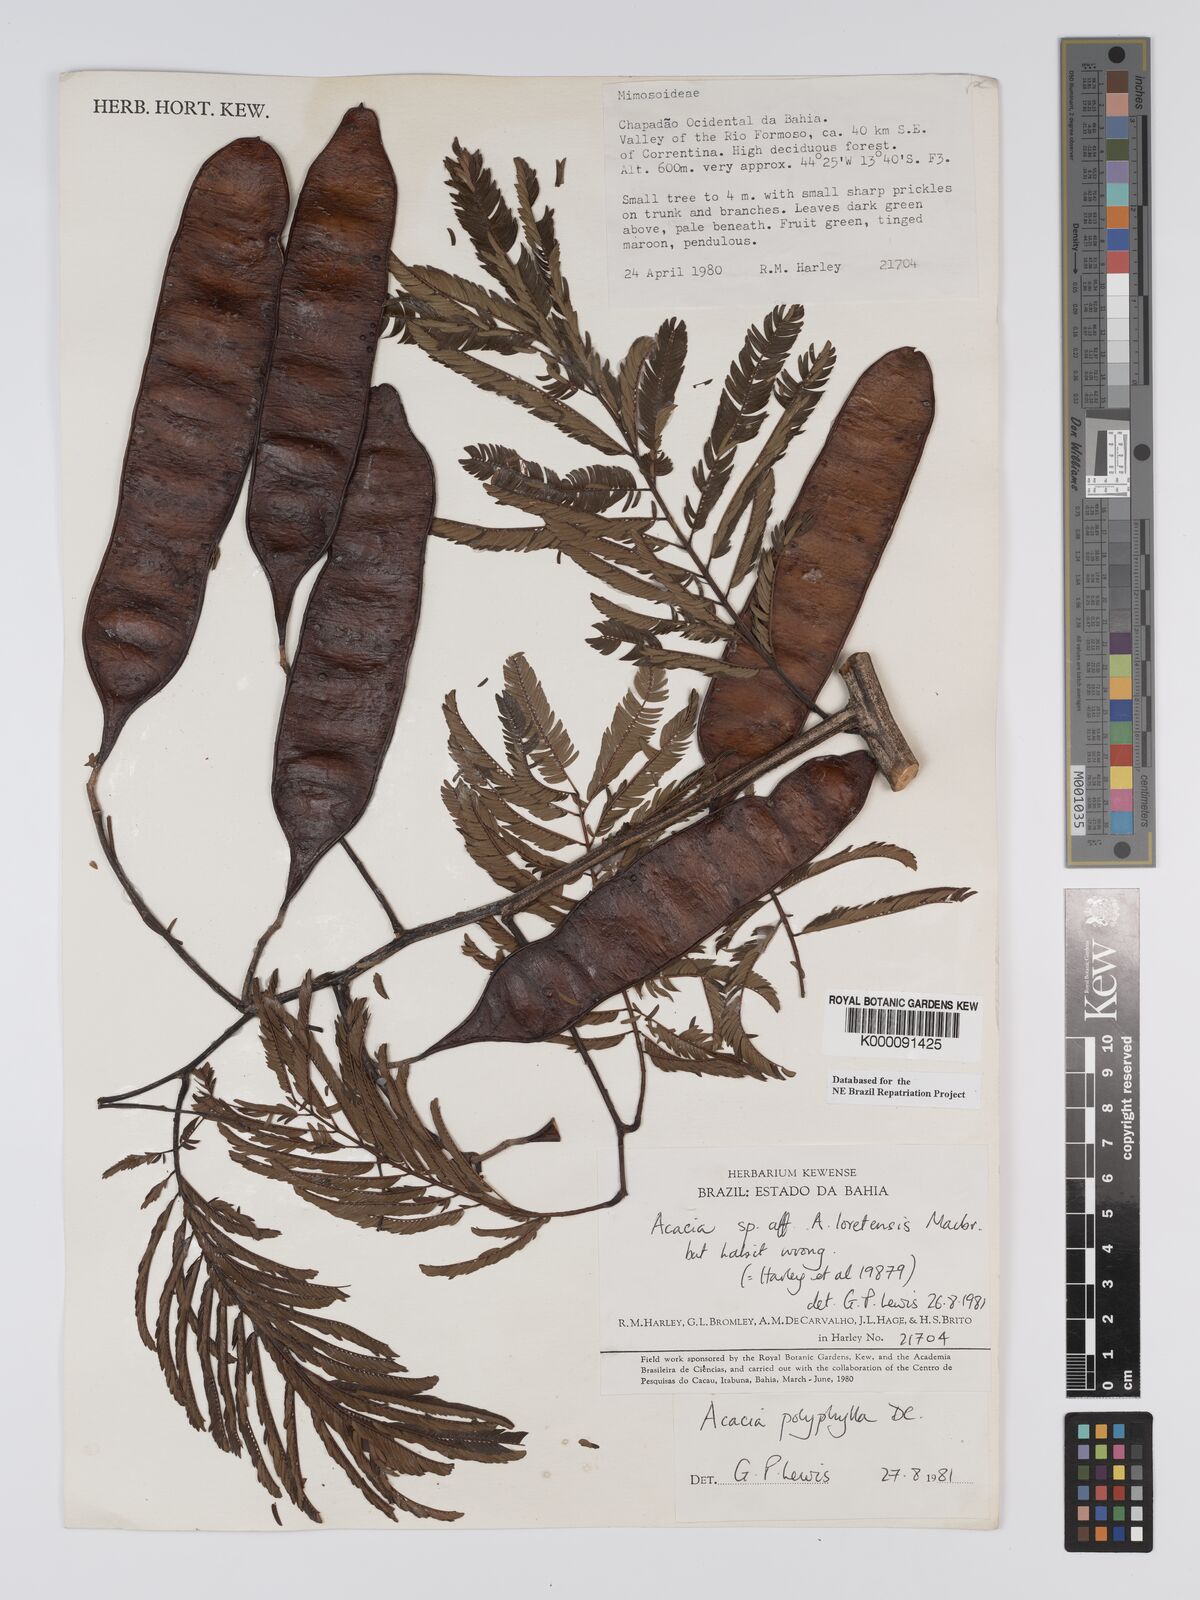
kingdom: Plantae
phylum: Tracheophyta
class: Magnoliopsida
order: Fabales
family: Fabaceae
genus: Senegalia
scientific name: Senegalia polyphylla
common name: White-tamarind
